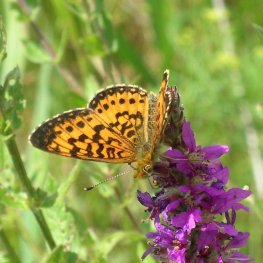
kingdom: Animalia
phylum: Arthropoda
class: Insecta
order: Lepidoptera
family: Nymphalidae
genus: Boloria
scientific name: Boloria selene
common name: Silver-bordered Fritillary
